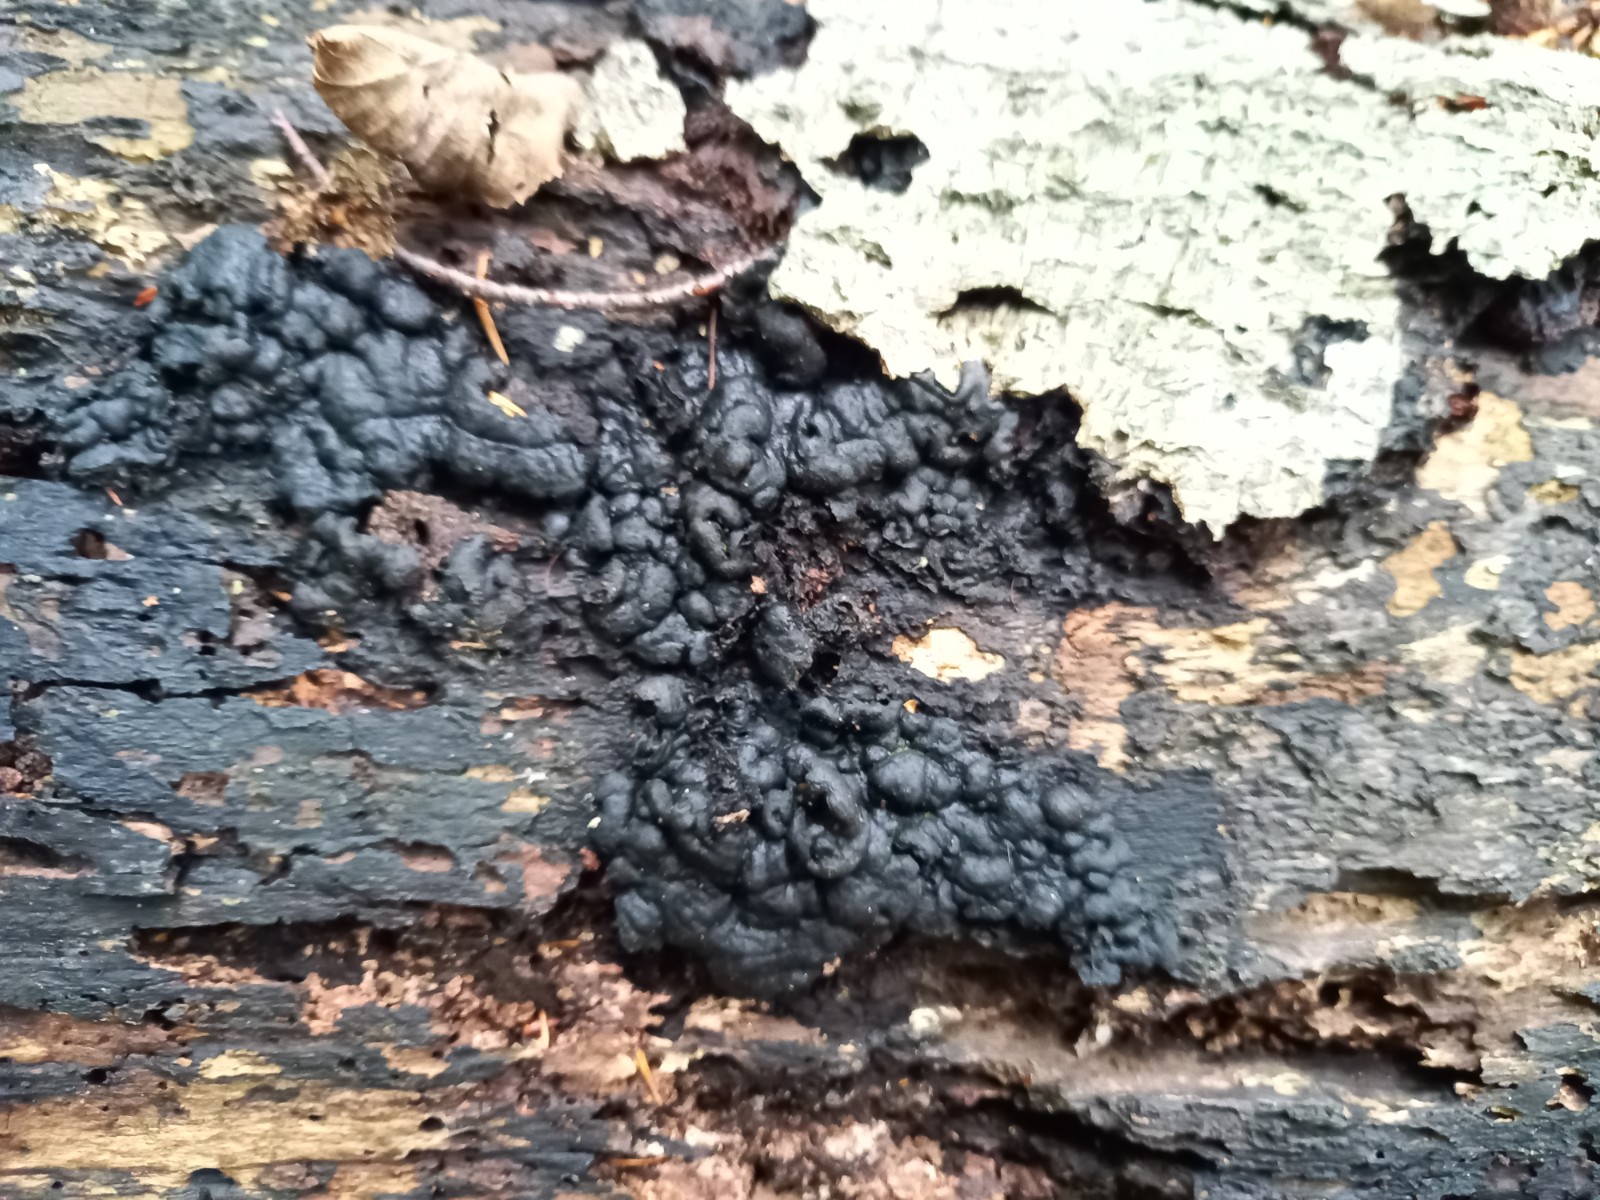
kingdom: Fungi
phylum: Ascomycota
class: Sordariomycetes
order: Xylariales
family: Xylariaceae
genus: Kretzschmaria
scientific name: Kretzschmaria deusta
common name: stor kulsvamp
